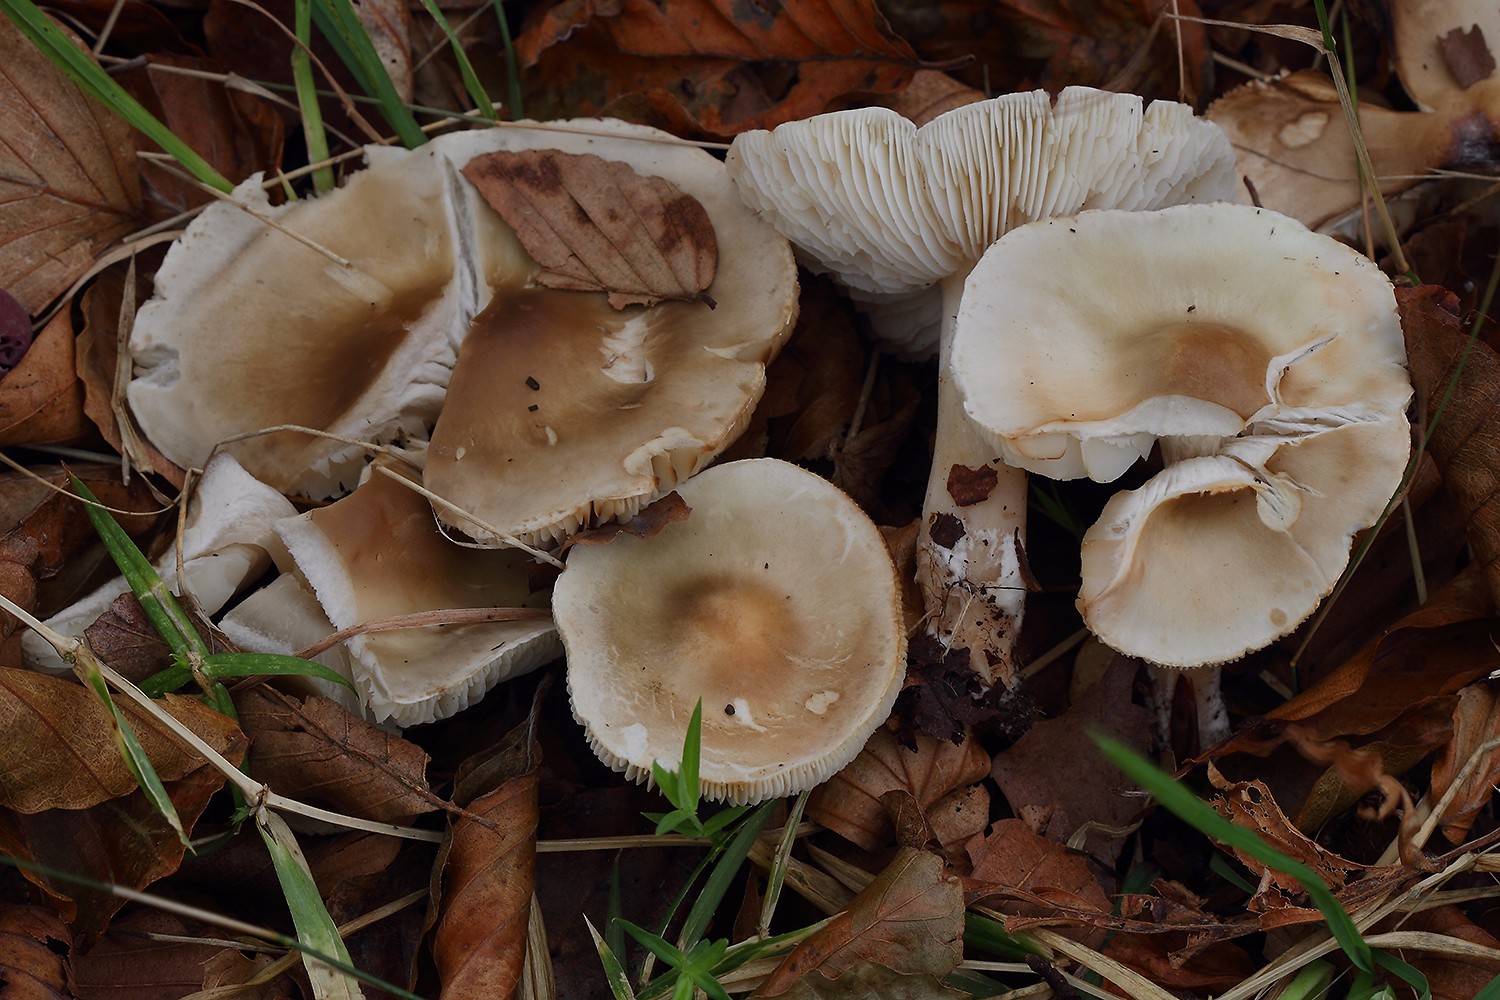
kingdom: Fungi
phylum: Basidiomycota
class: Agaricomycetes
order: Agaricales
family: Tricholomataceae
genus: Tricholoma
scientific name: Tricholoma saponaceum
